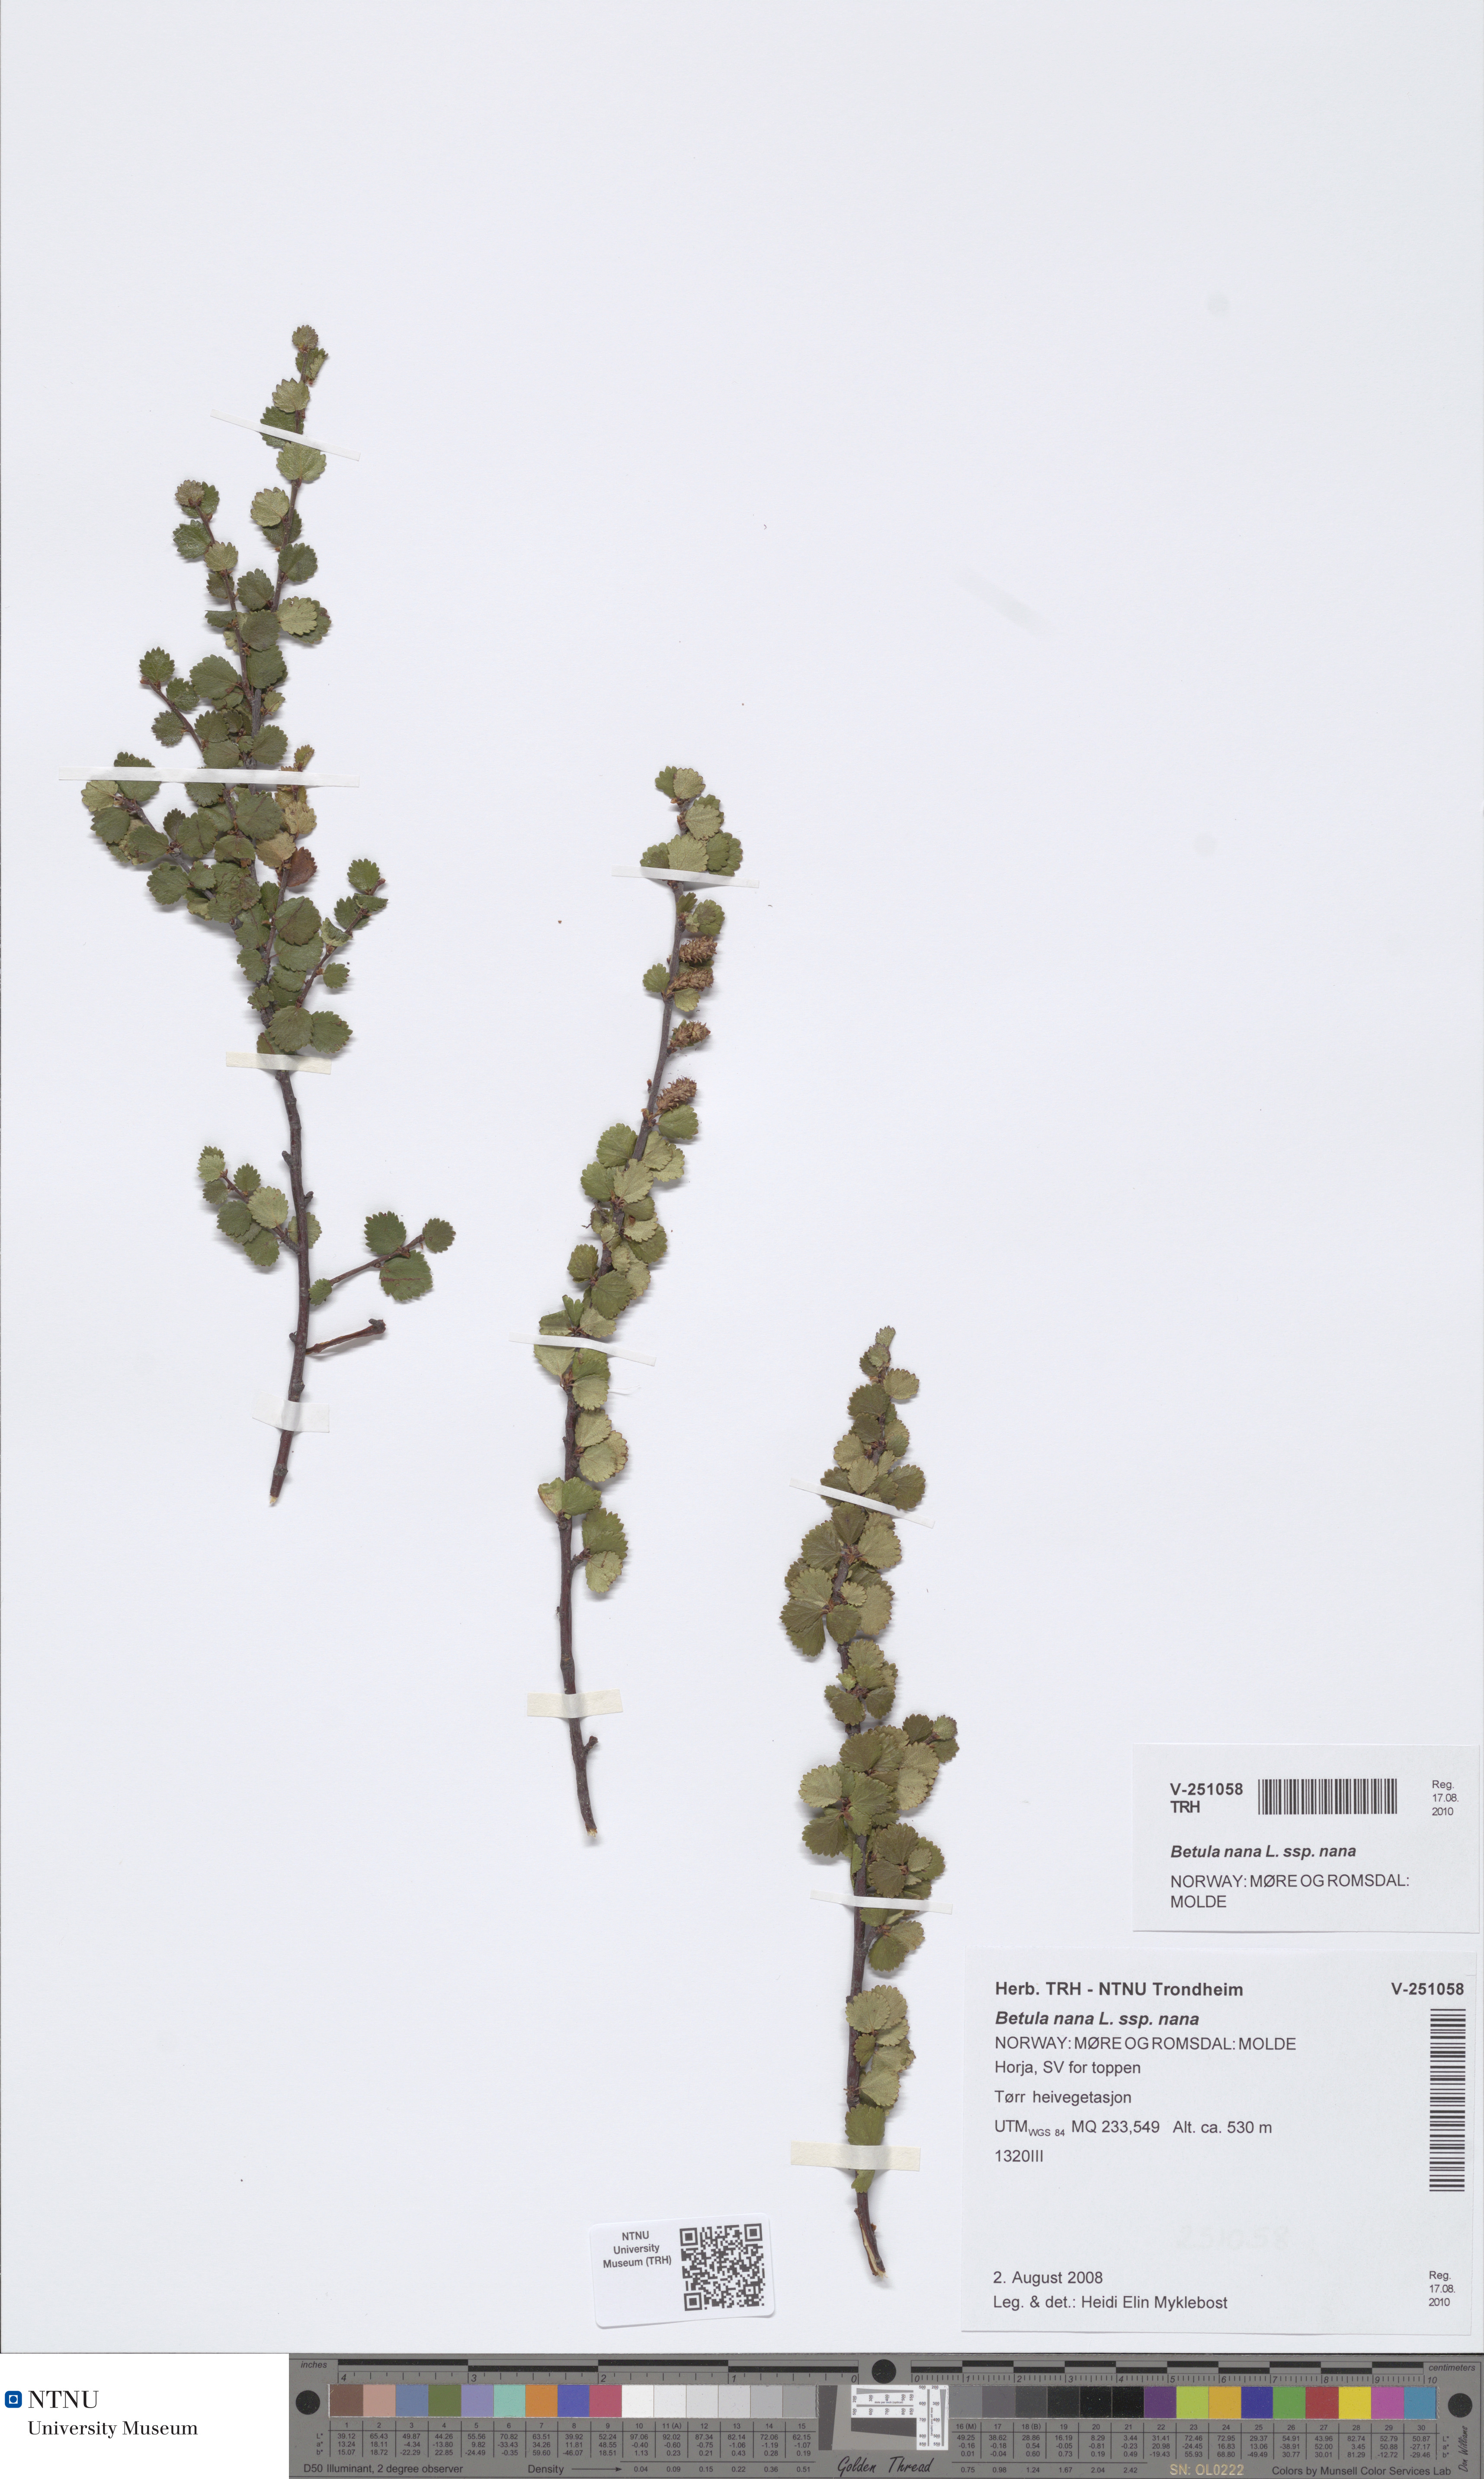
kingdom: Plantae
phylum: Tracheophyta
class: Magnoliopsida
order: Fagales
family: Betulaceae
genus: Betula
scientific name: Betula nana
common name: Arctic dwarf birch
